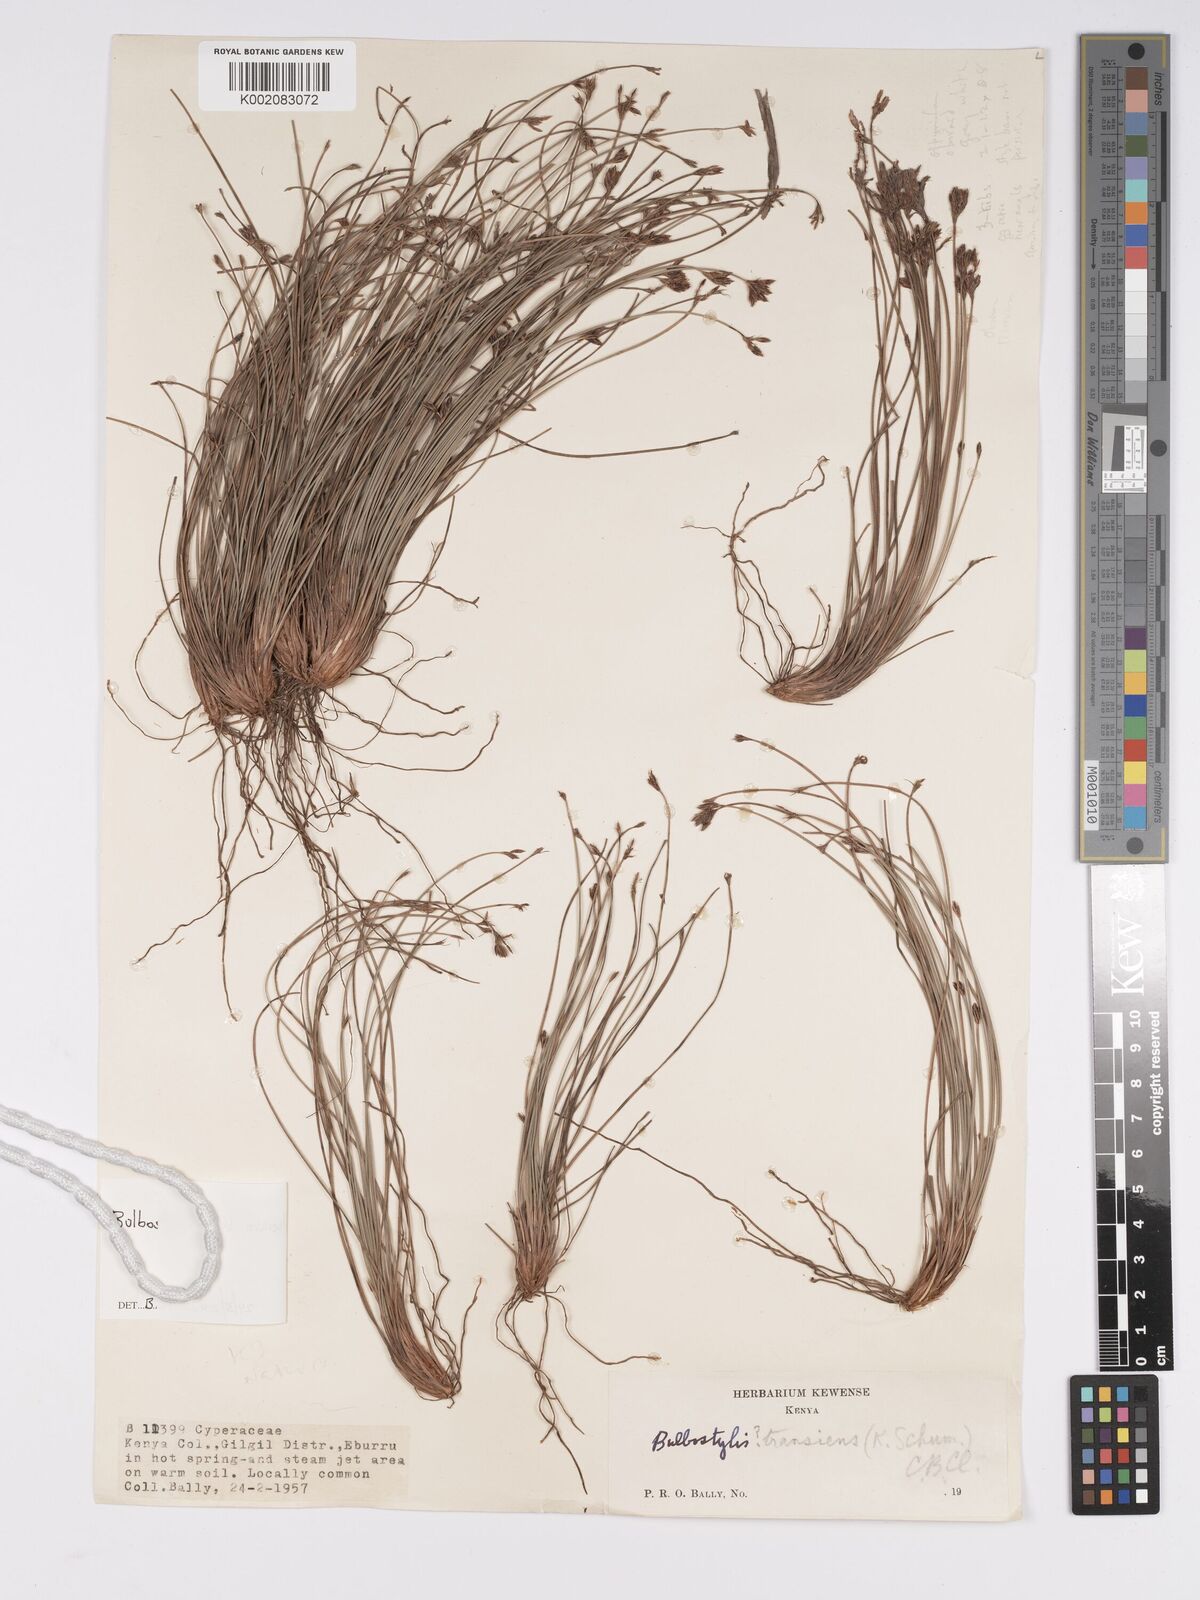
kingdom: Plantae
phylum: Tracheophyta
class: Liliopsida
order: Poales
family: Cyperaceae
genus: Bulbostylis
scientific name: Bulbostylis mlangoyajehenum
